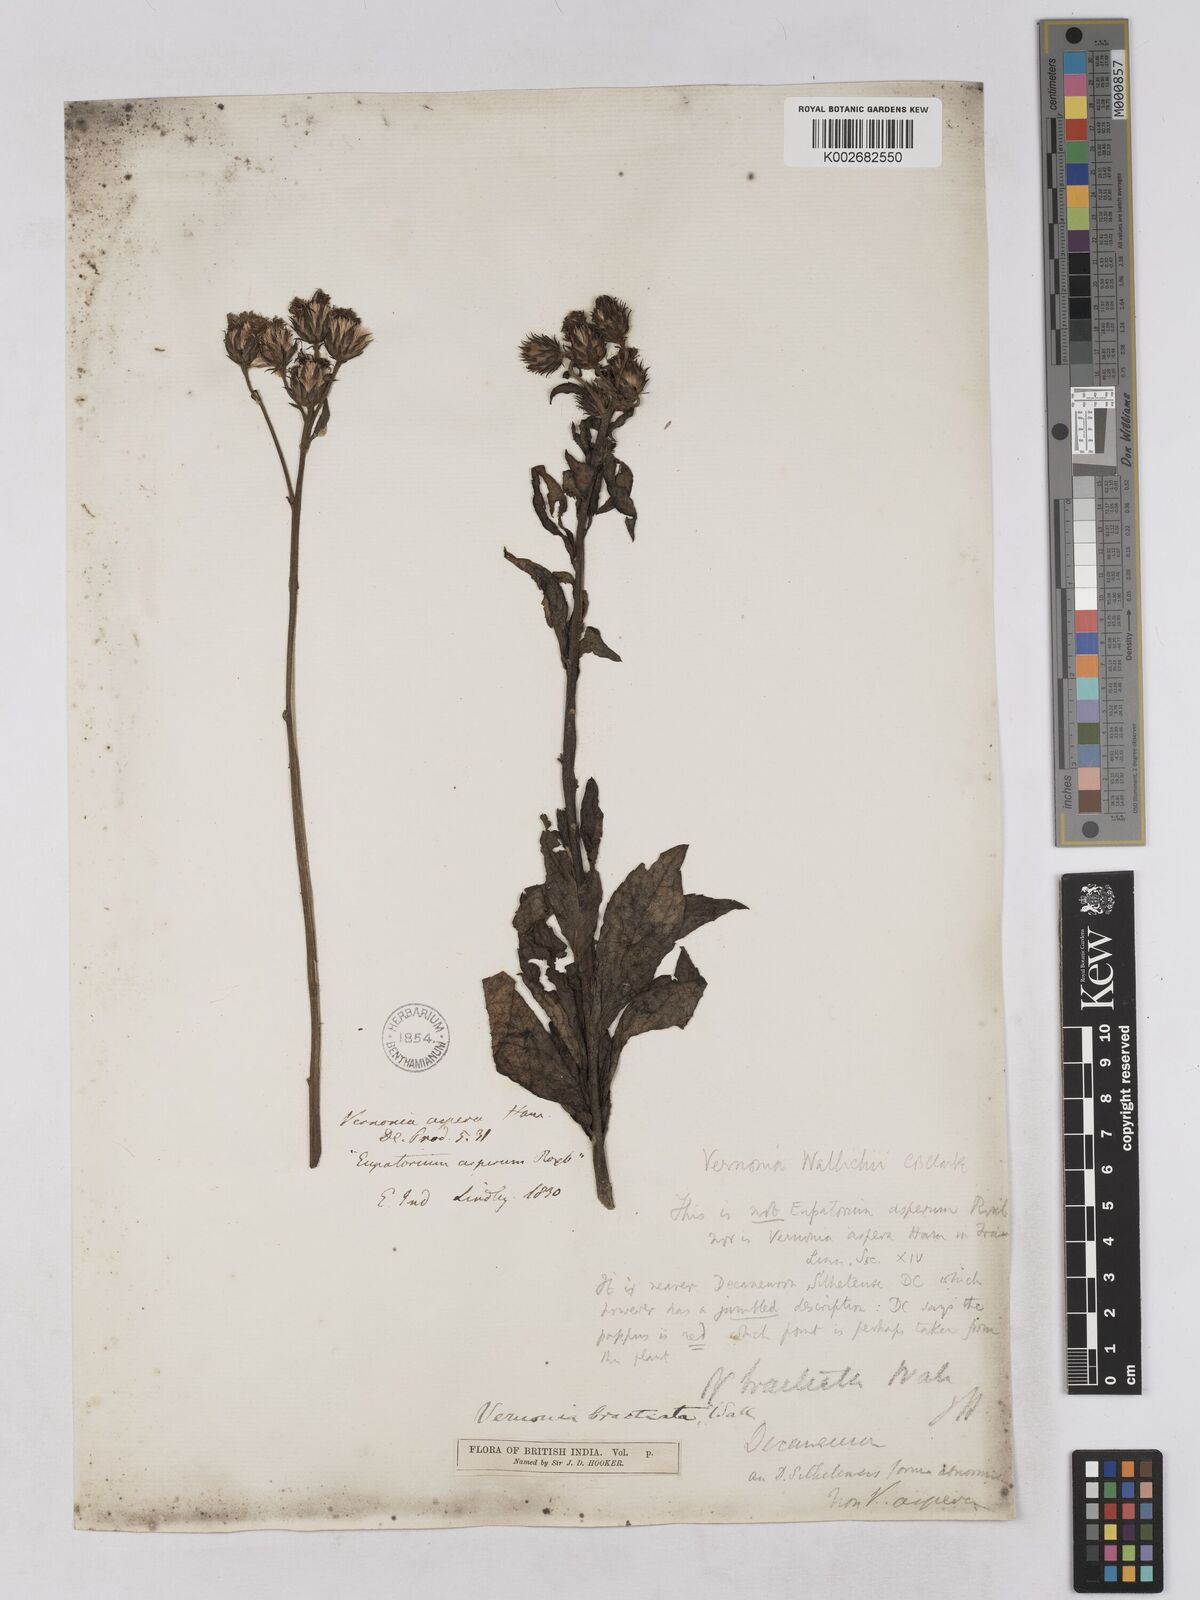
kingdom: Plantae
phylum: Tracheophyta
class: Magnoliopsida
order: Asterales
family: Asteraceae
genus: Acilepis
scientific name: Acilepis silhetensis
